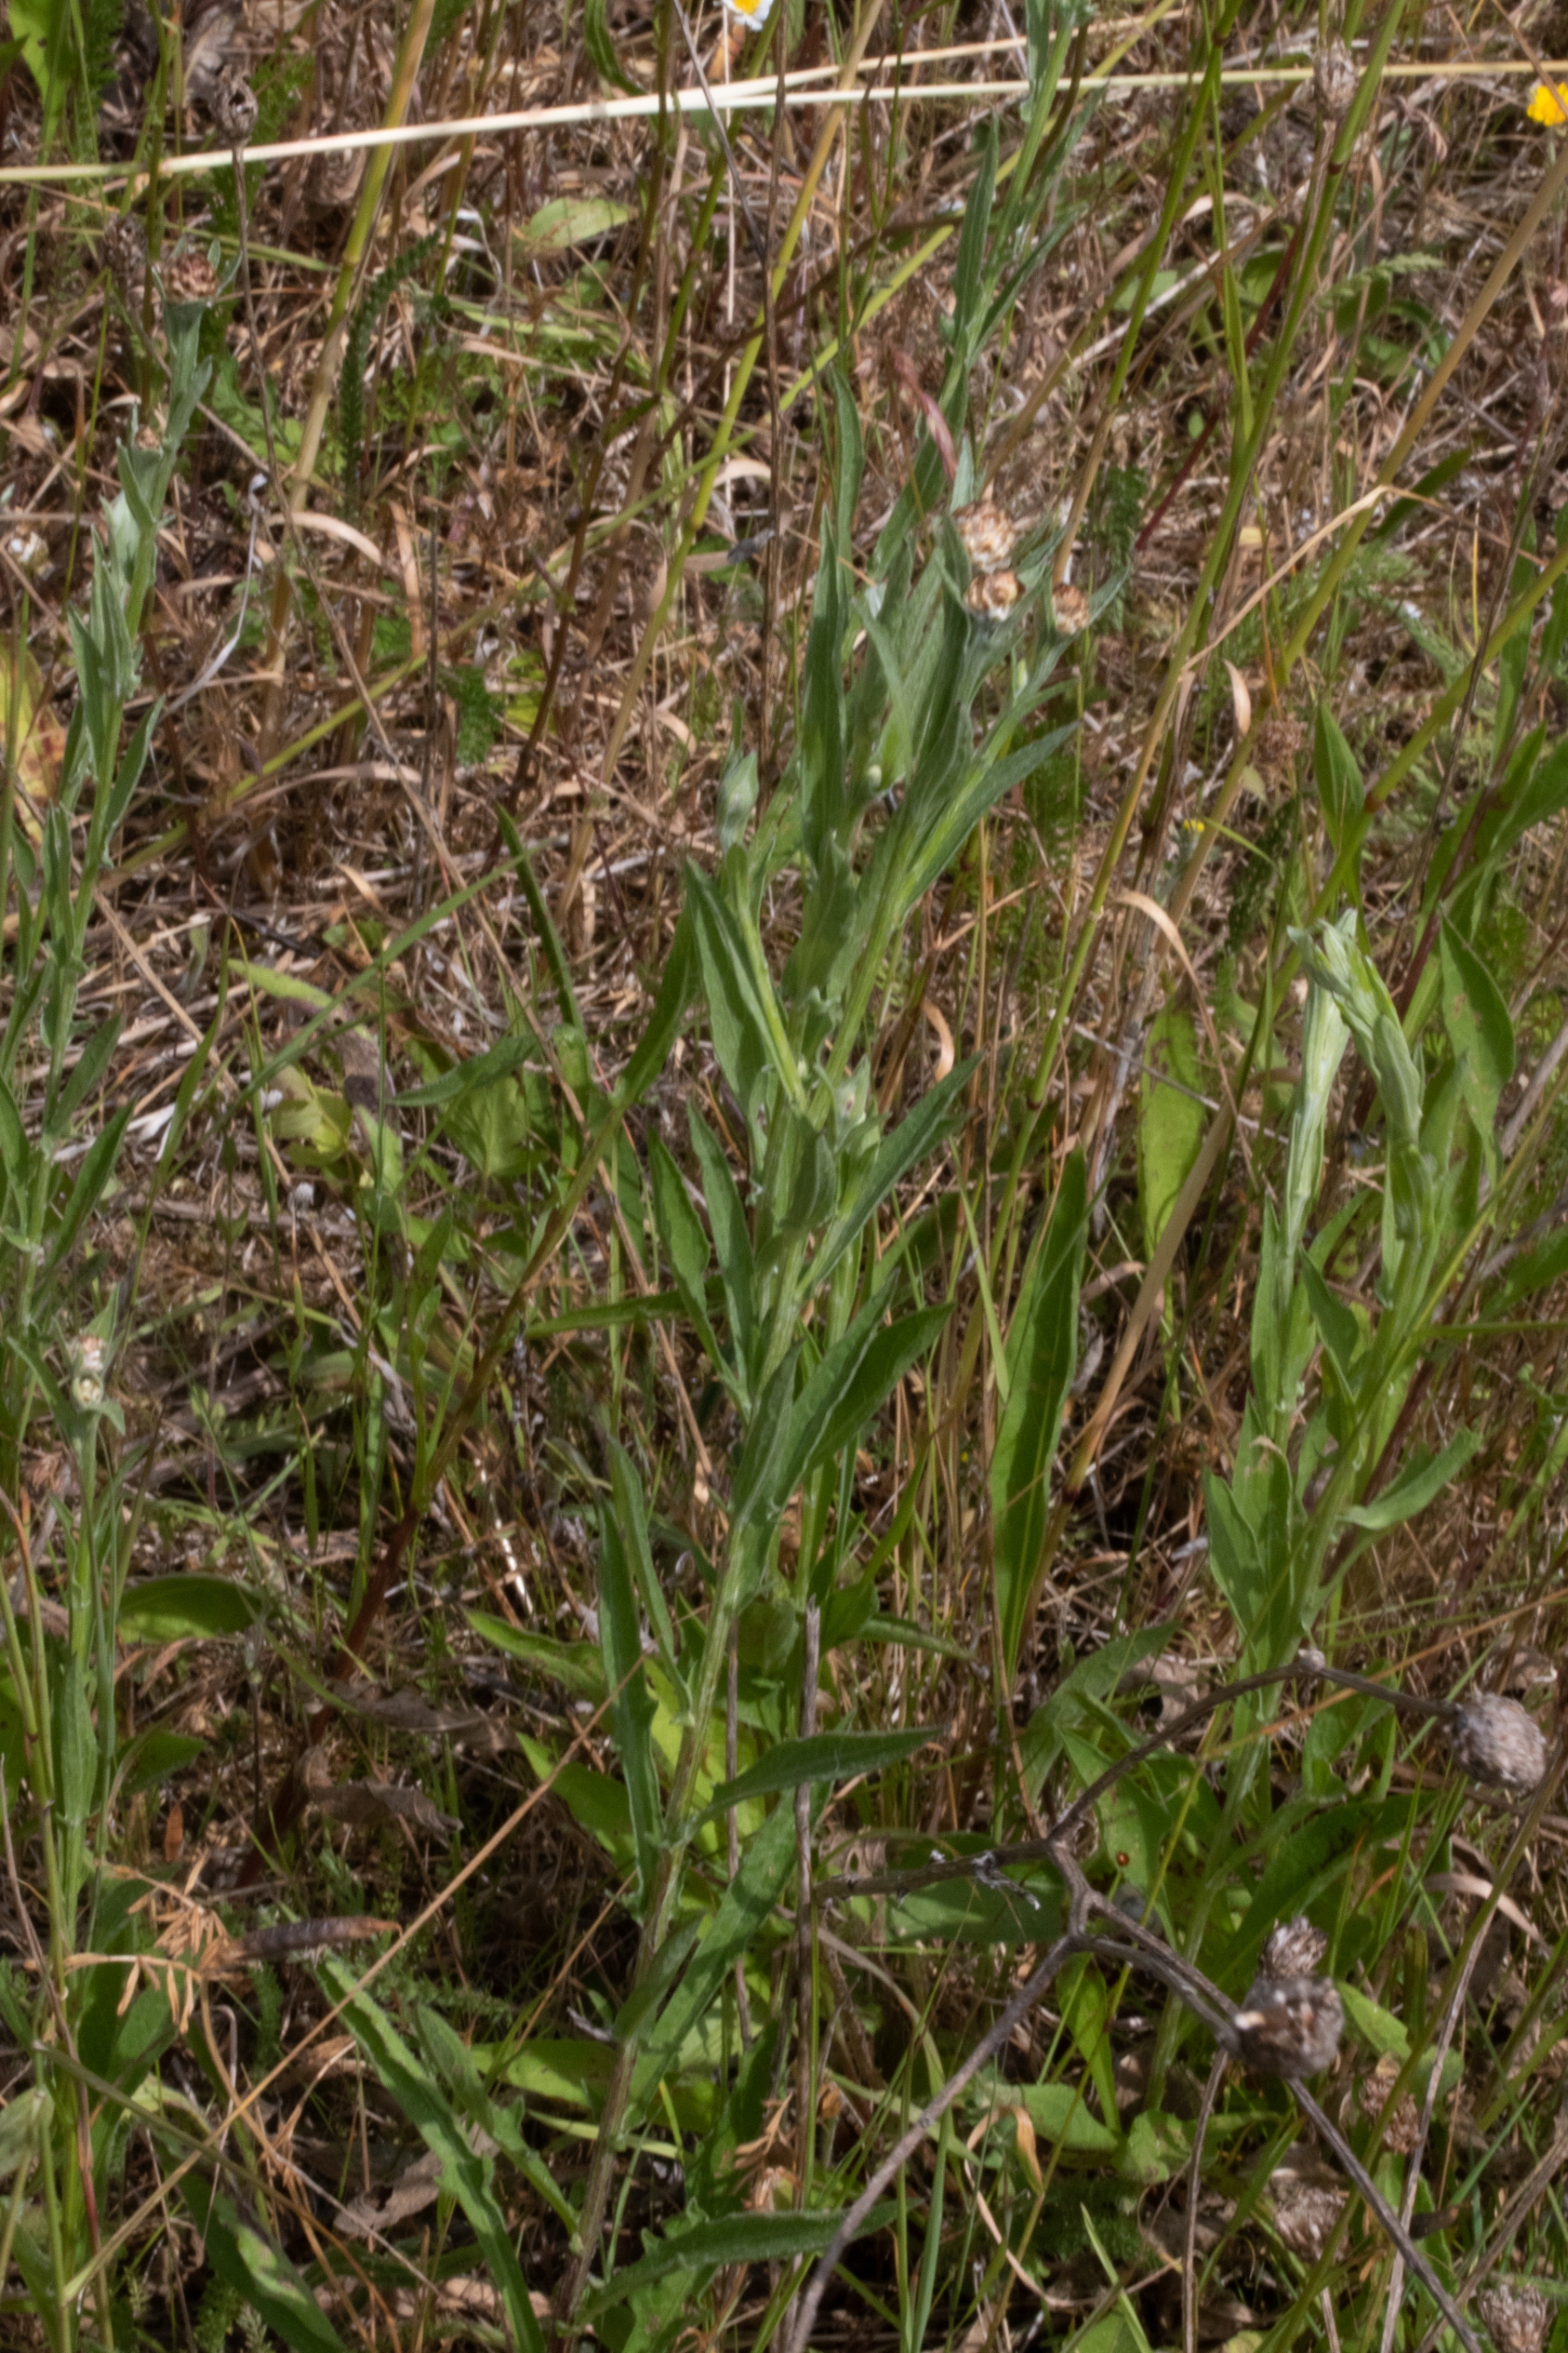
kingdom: Plantae
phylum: Tracheophyta
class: Magnoliopsida
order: Asterales
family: Asteraceae
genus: Gnaphalium
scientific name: Gnaphalium uliginosum
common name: Sump-evighedsblomst
